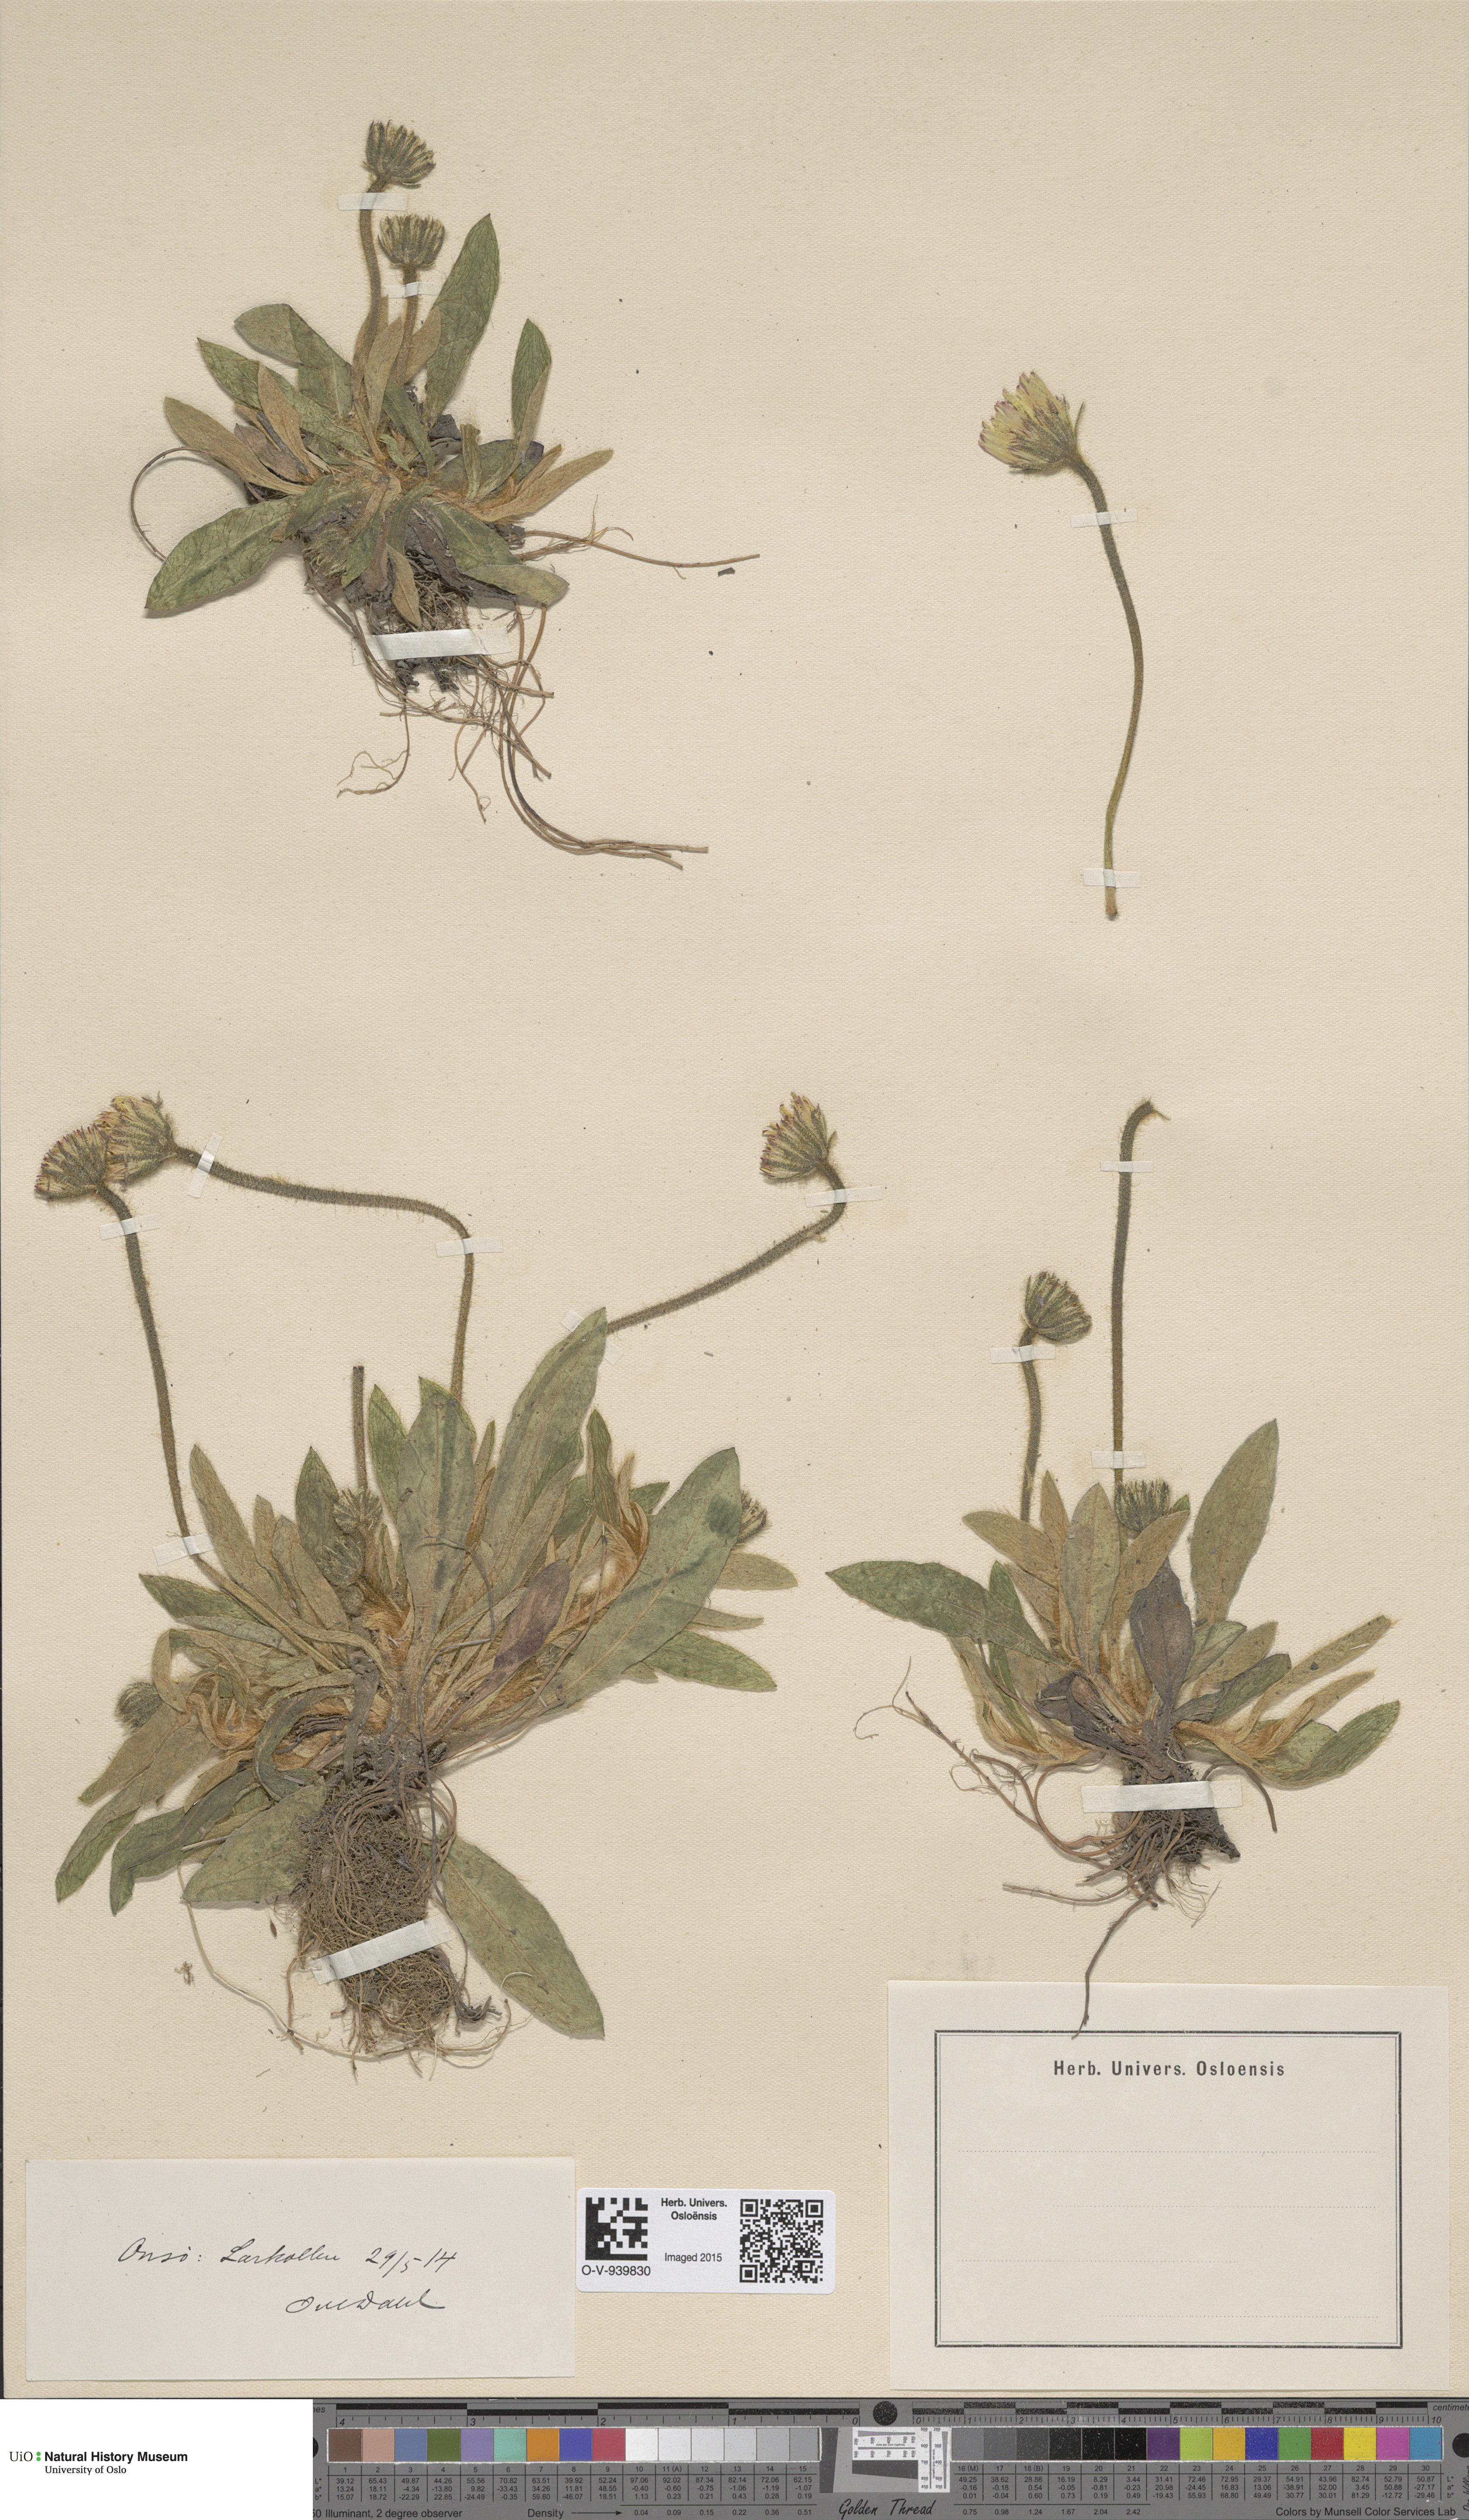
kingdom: Plantae
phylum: Tracheophyta
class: Magnoliopsida
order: Asterales
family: Asteraceae
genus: Hieracium
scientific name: Hieracium
